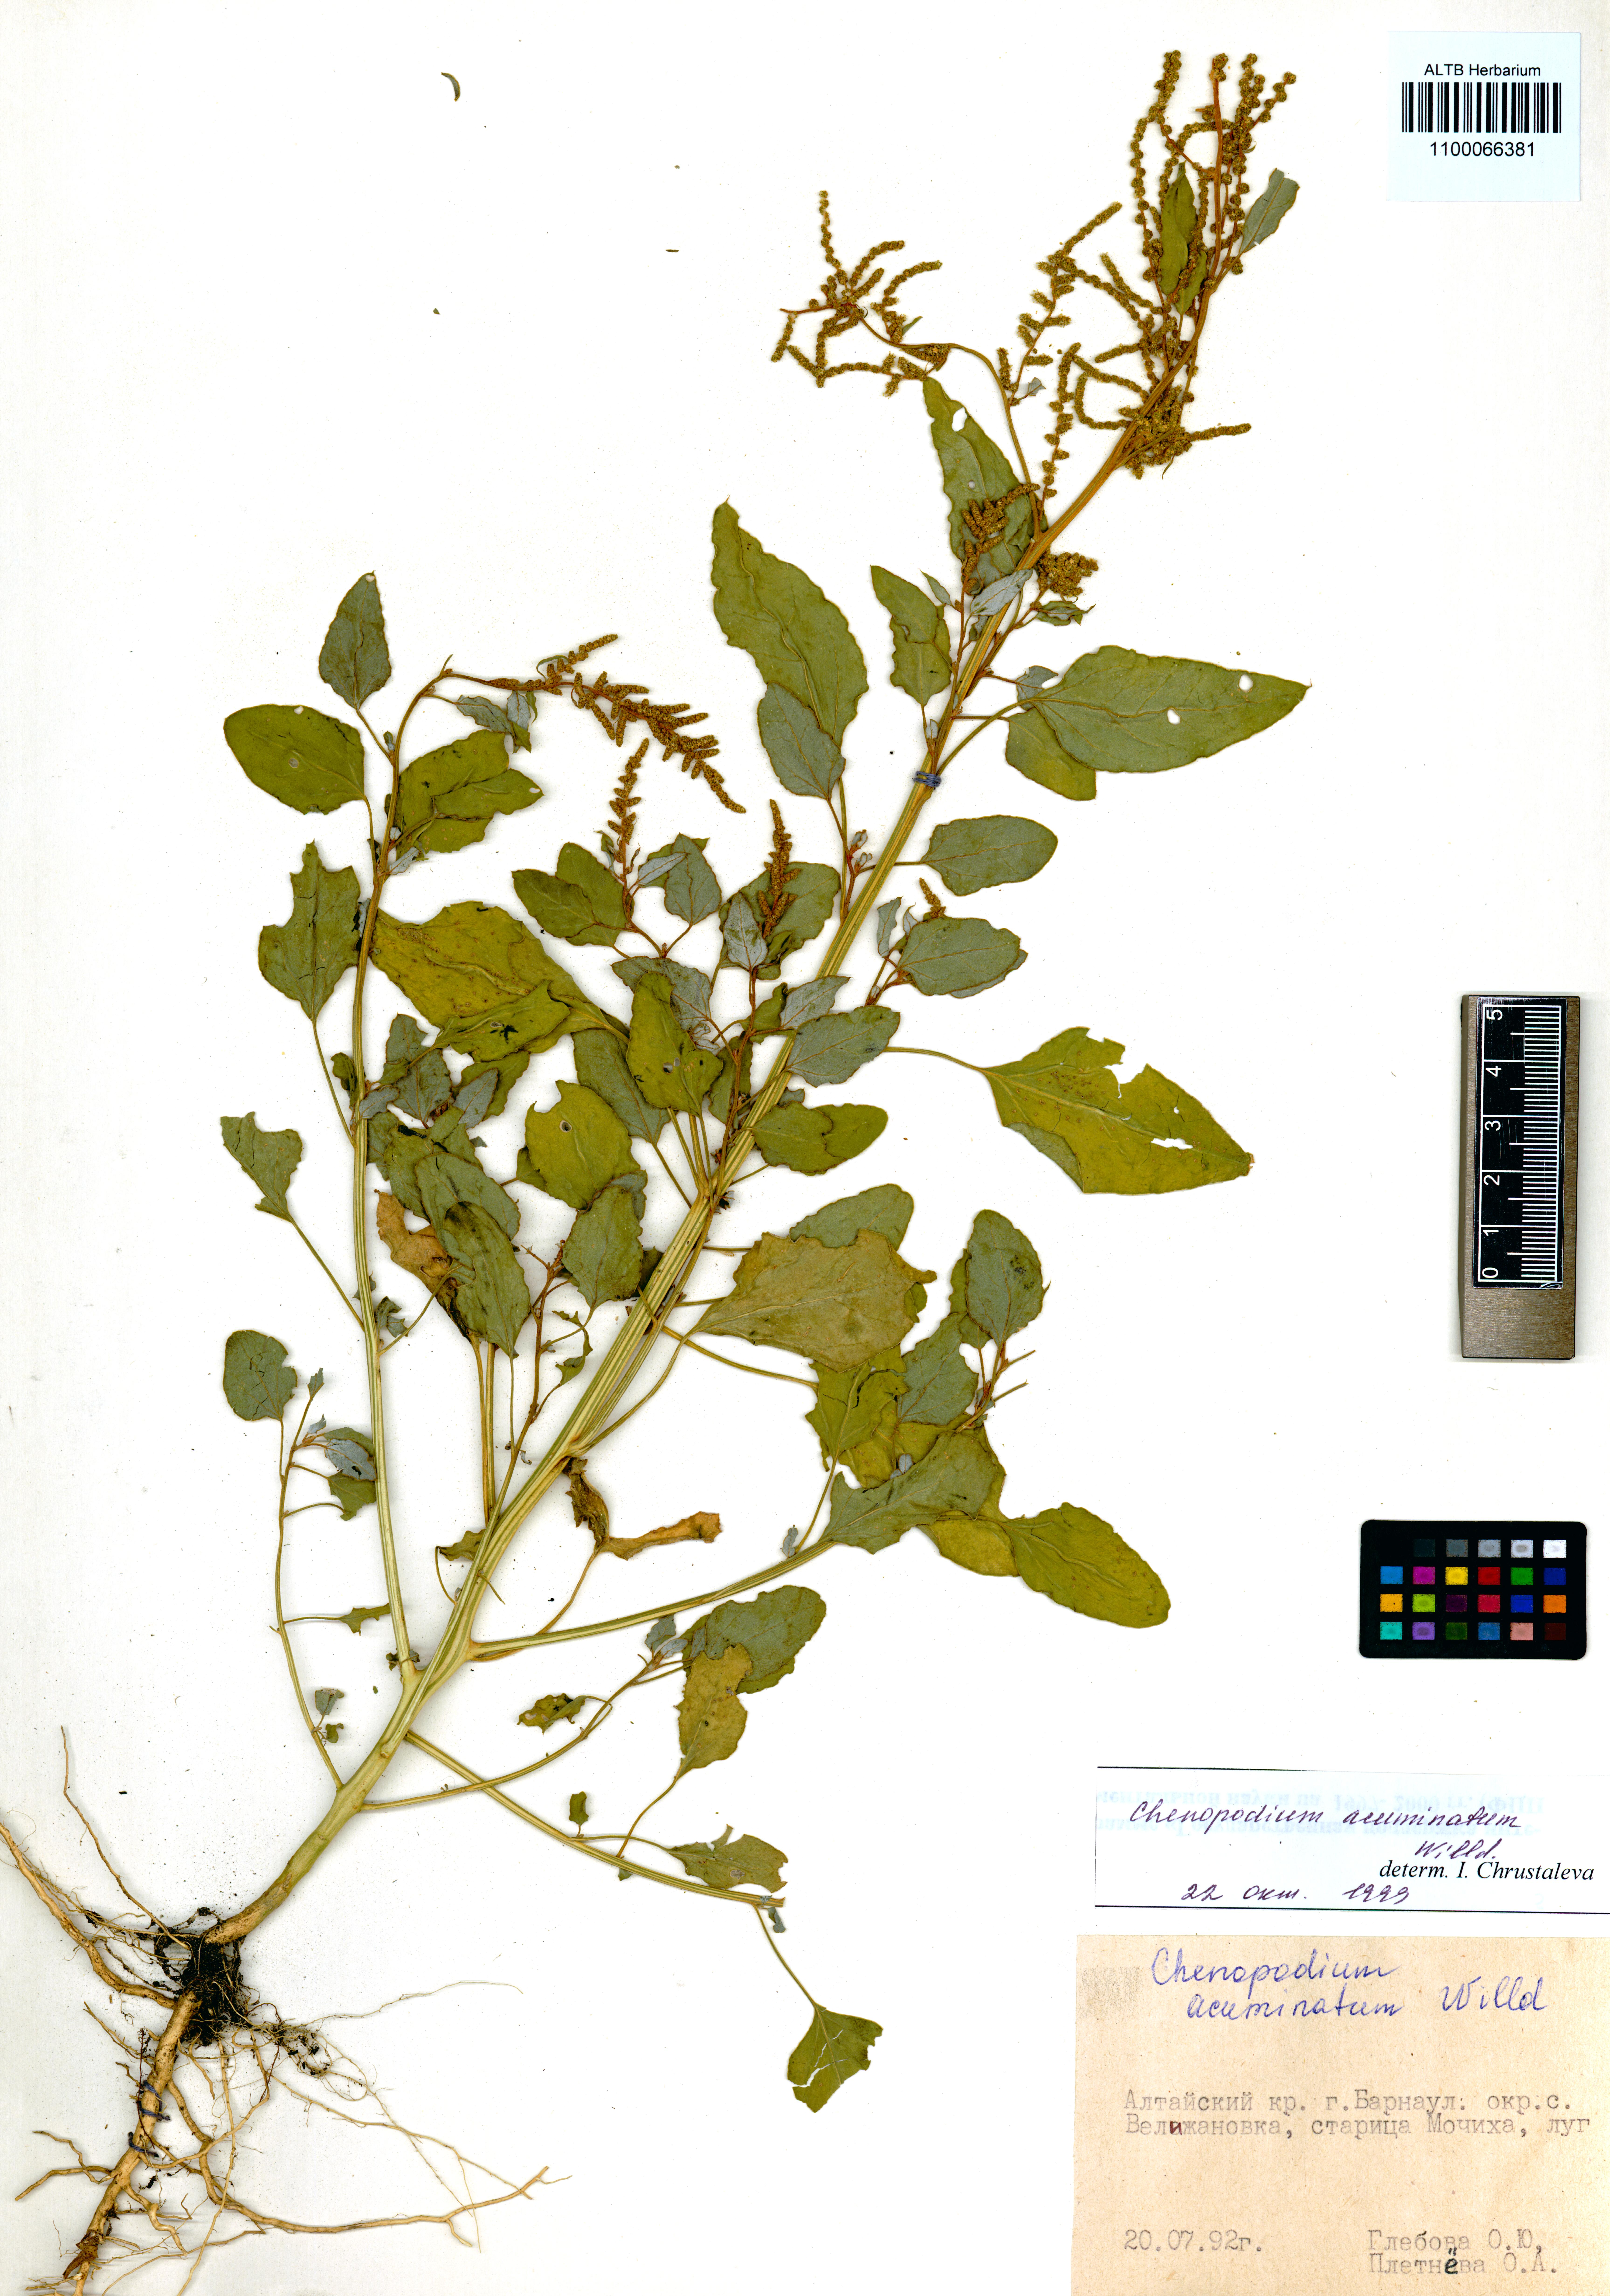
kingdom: Plantae
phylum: Tracheophyta
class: Magnoliopsida
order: Caryophyllales
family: Amaranthaceae
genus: Chenopodium
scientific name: Chenopodium acuminatum
